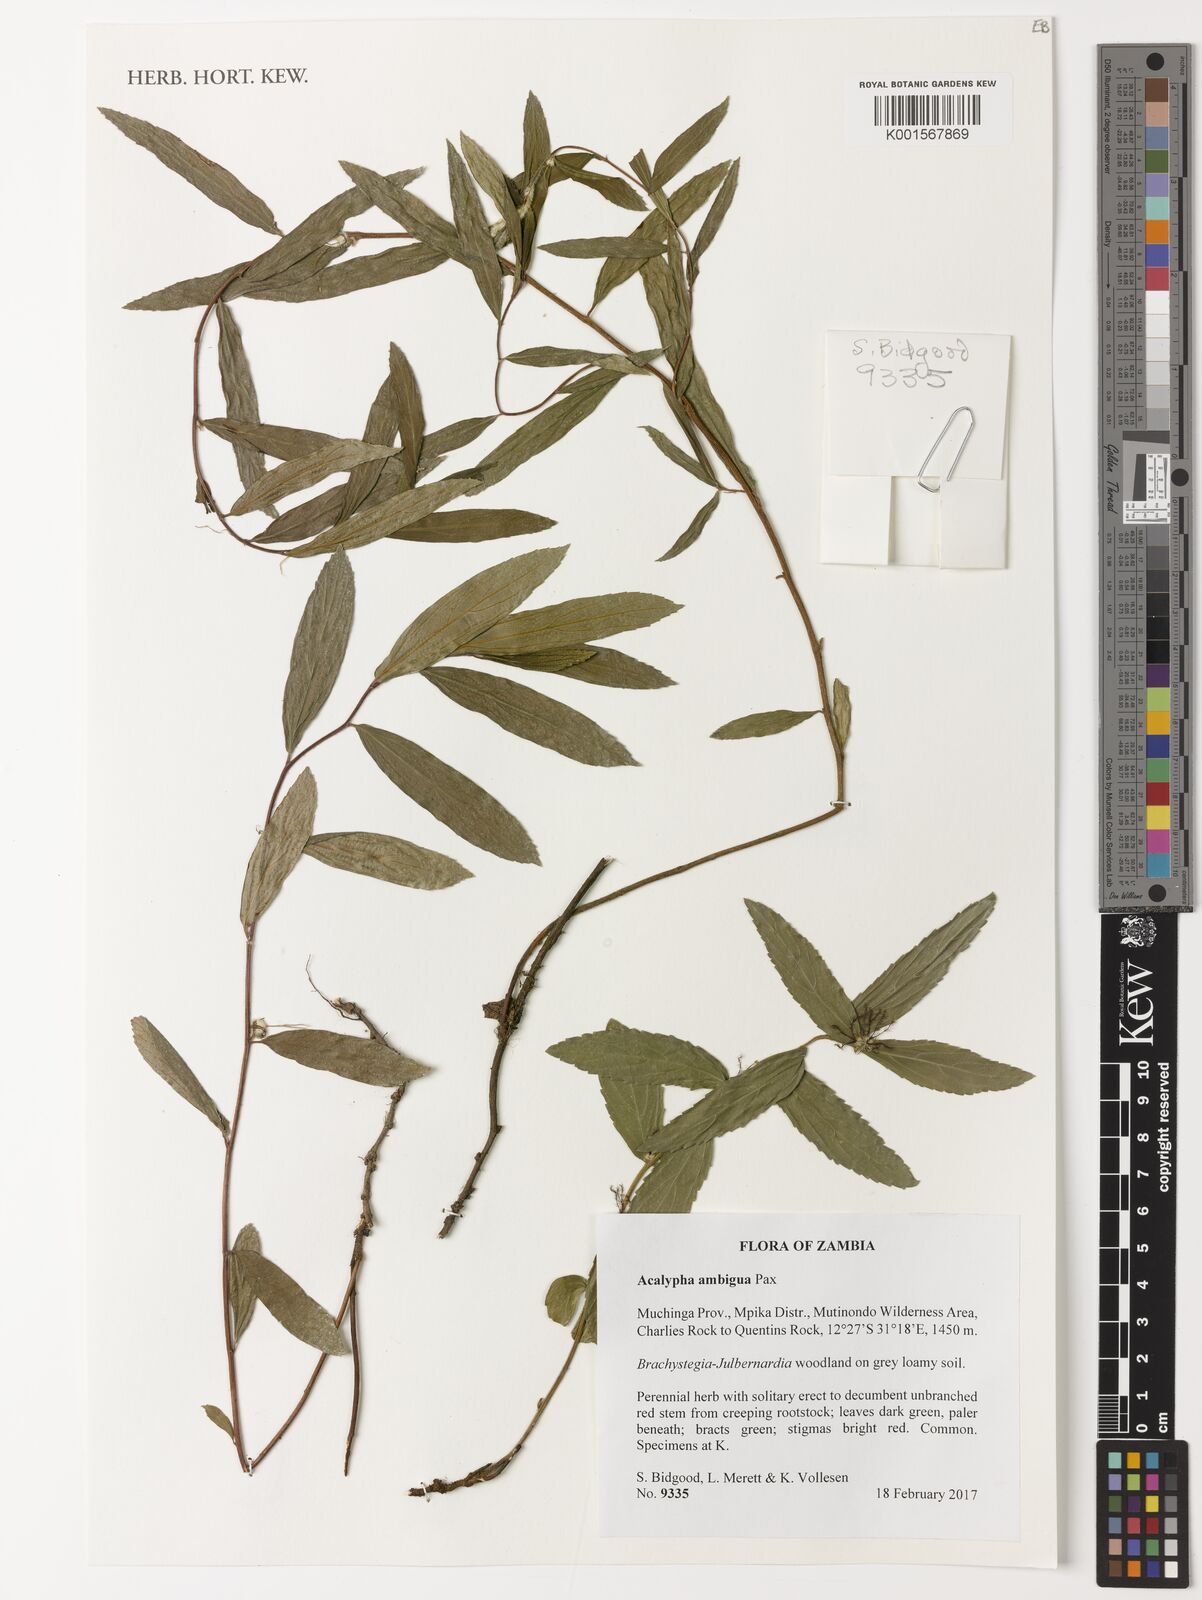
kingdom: Plantae
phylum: Tracheophyta
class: Magnoliopsida
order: Malpighiales
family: Euphorbiaceae
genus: Acalypha
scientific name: Acalypha ambigua
